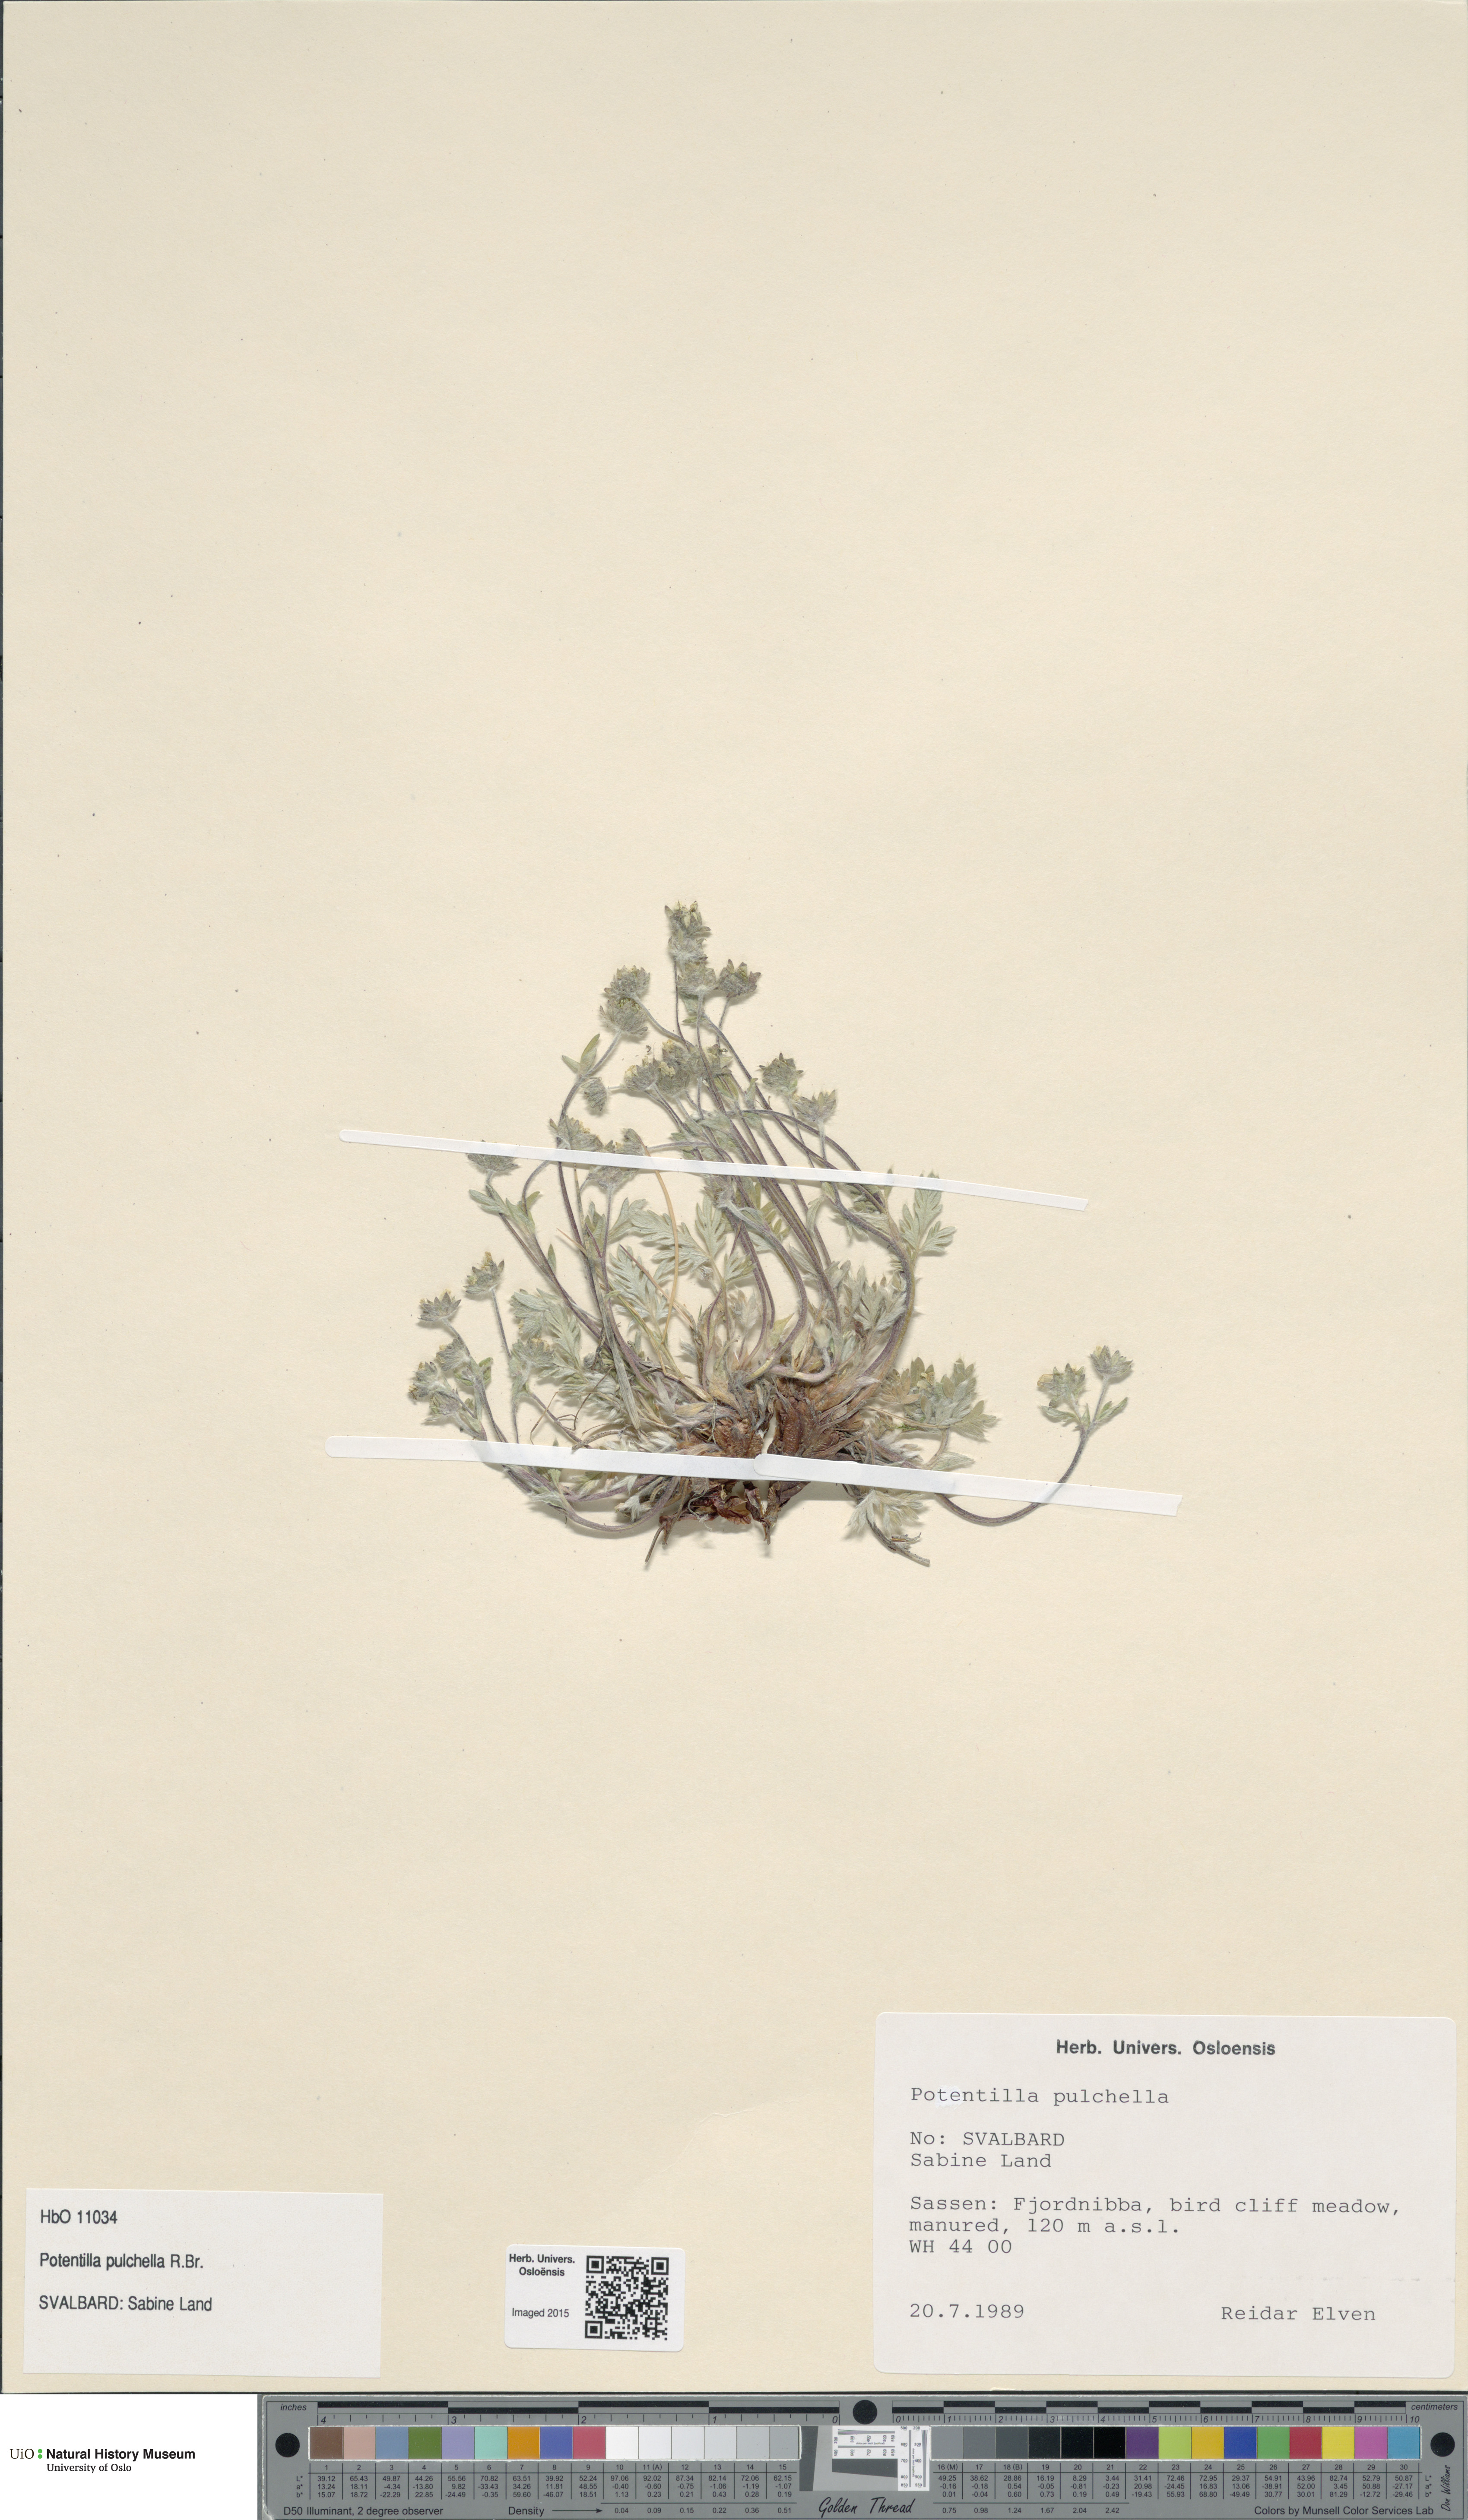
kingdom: Plantae
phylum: Tracheophyta
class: Magnoliopsida
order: Rosales
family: Rosaceae
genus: Potentilla
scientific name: Potentilla pulchella
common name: Pretty cinquefoil
